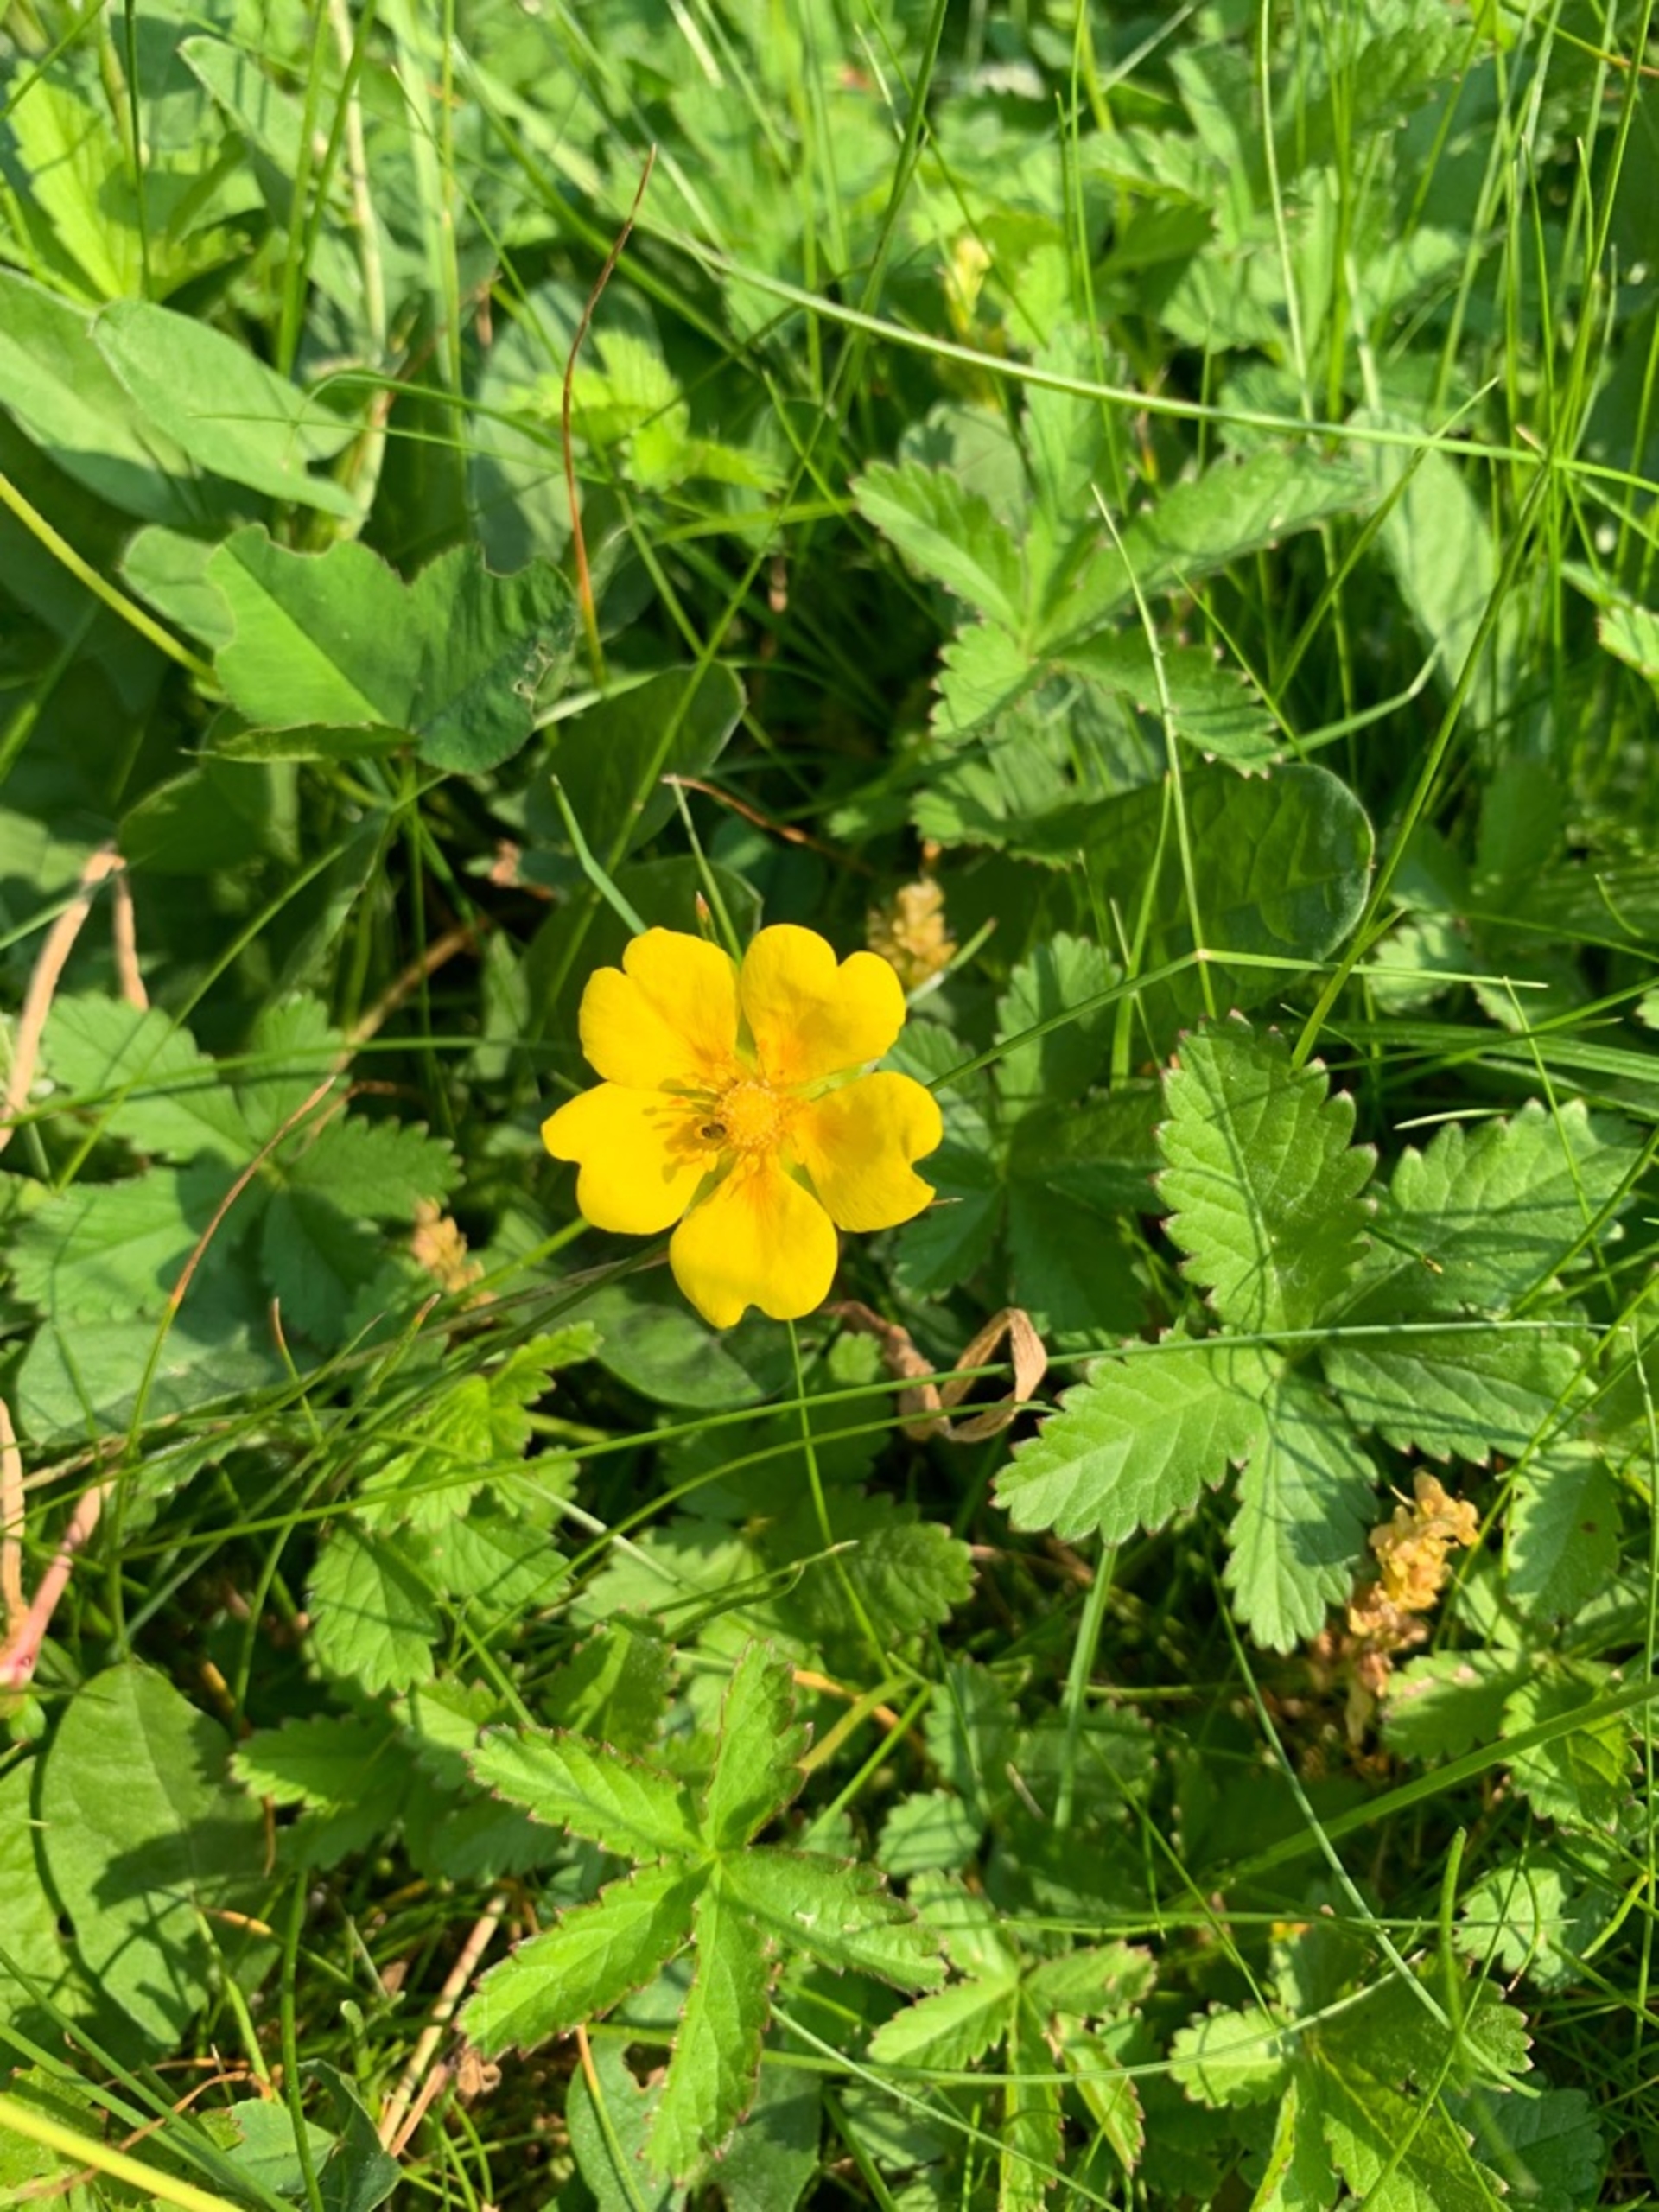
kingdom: Plantae
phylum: Tracheophyta
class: Magnoliopsida
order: Rosales
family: Rosaceae
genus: Potentilla
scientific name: Potentilla reptans
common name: Krybende potentil
